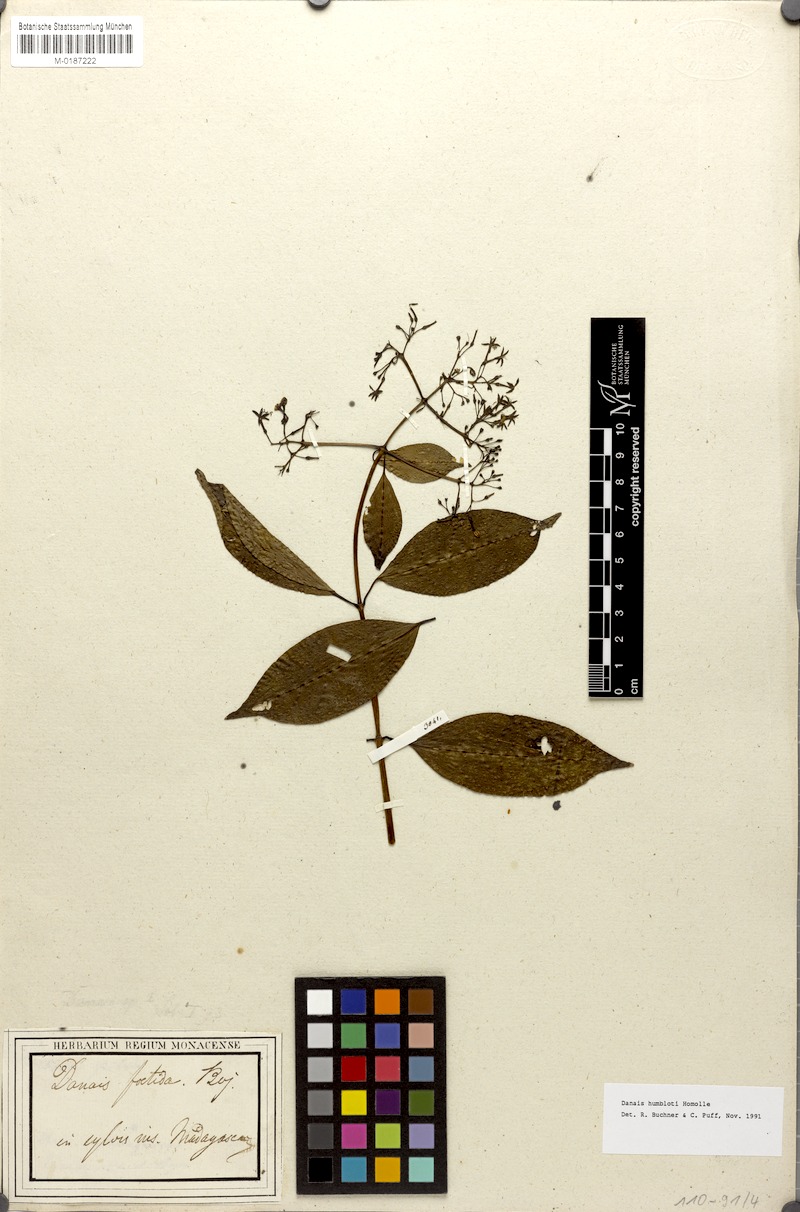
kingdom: Plantae
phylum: Tracheophyta
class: Magnoliopsida
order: Gentianales
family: Rubiaceae
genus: Danais
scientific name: Danais humblotii
